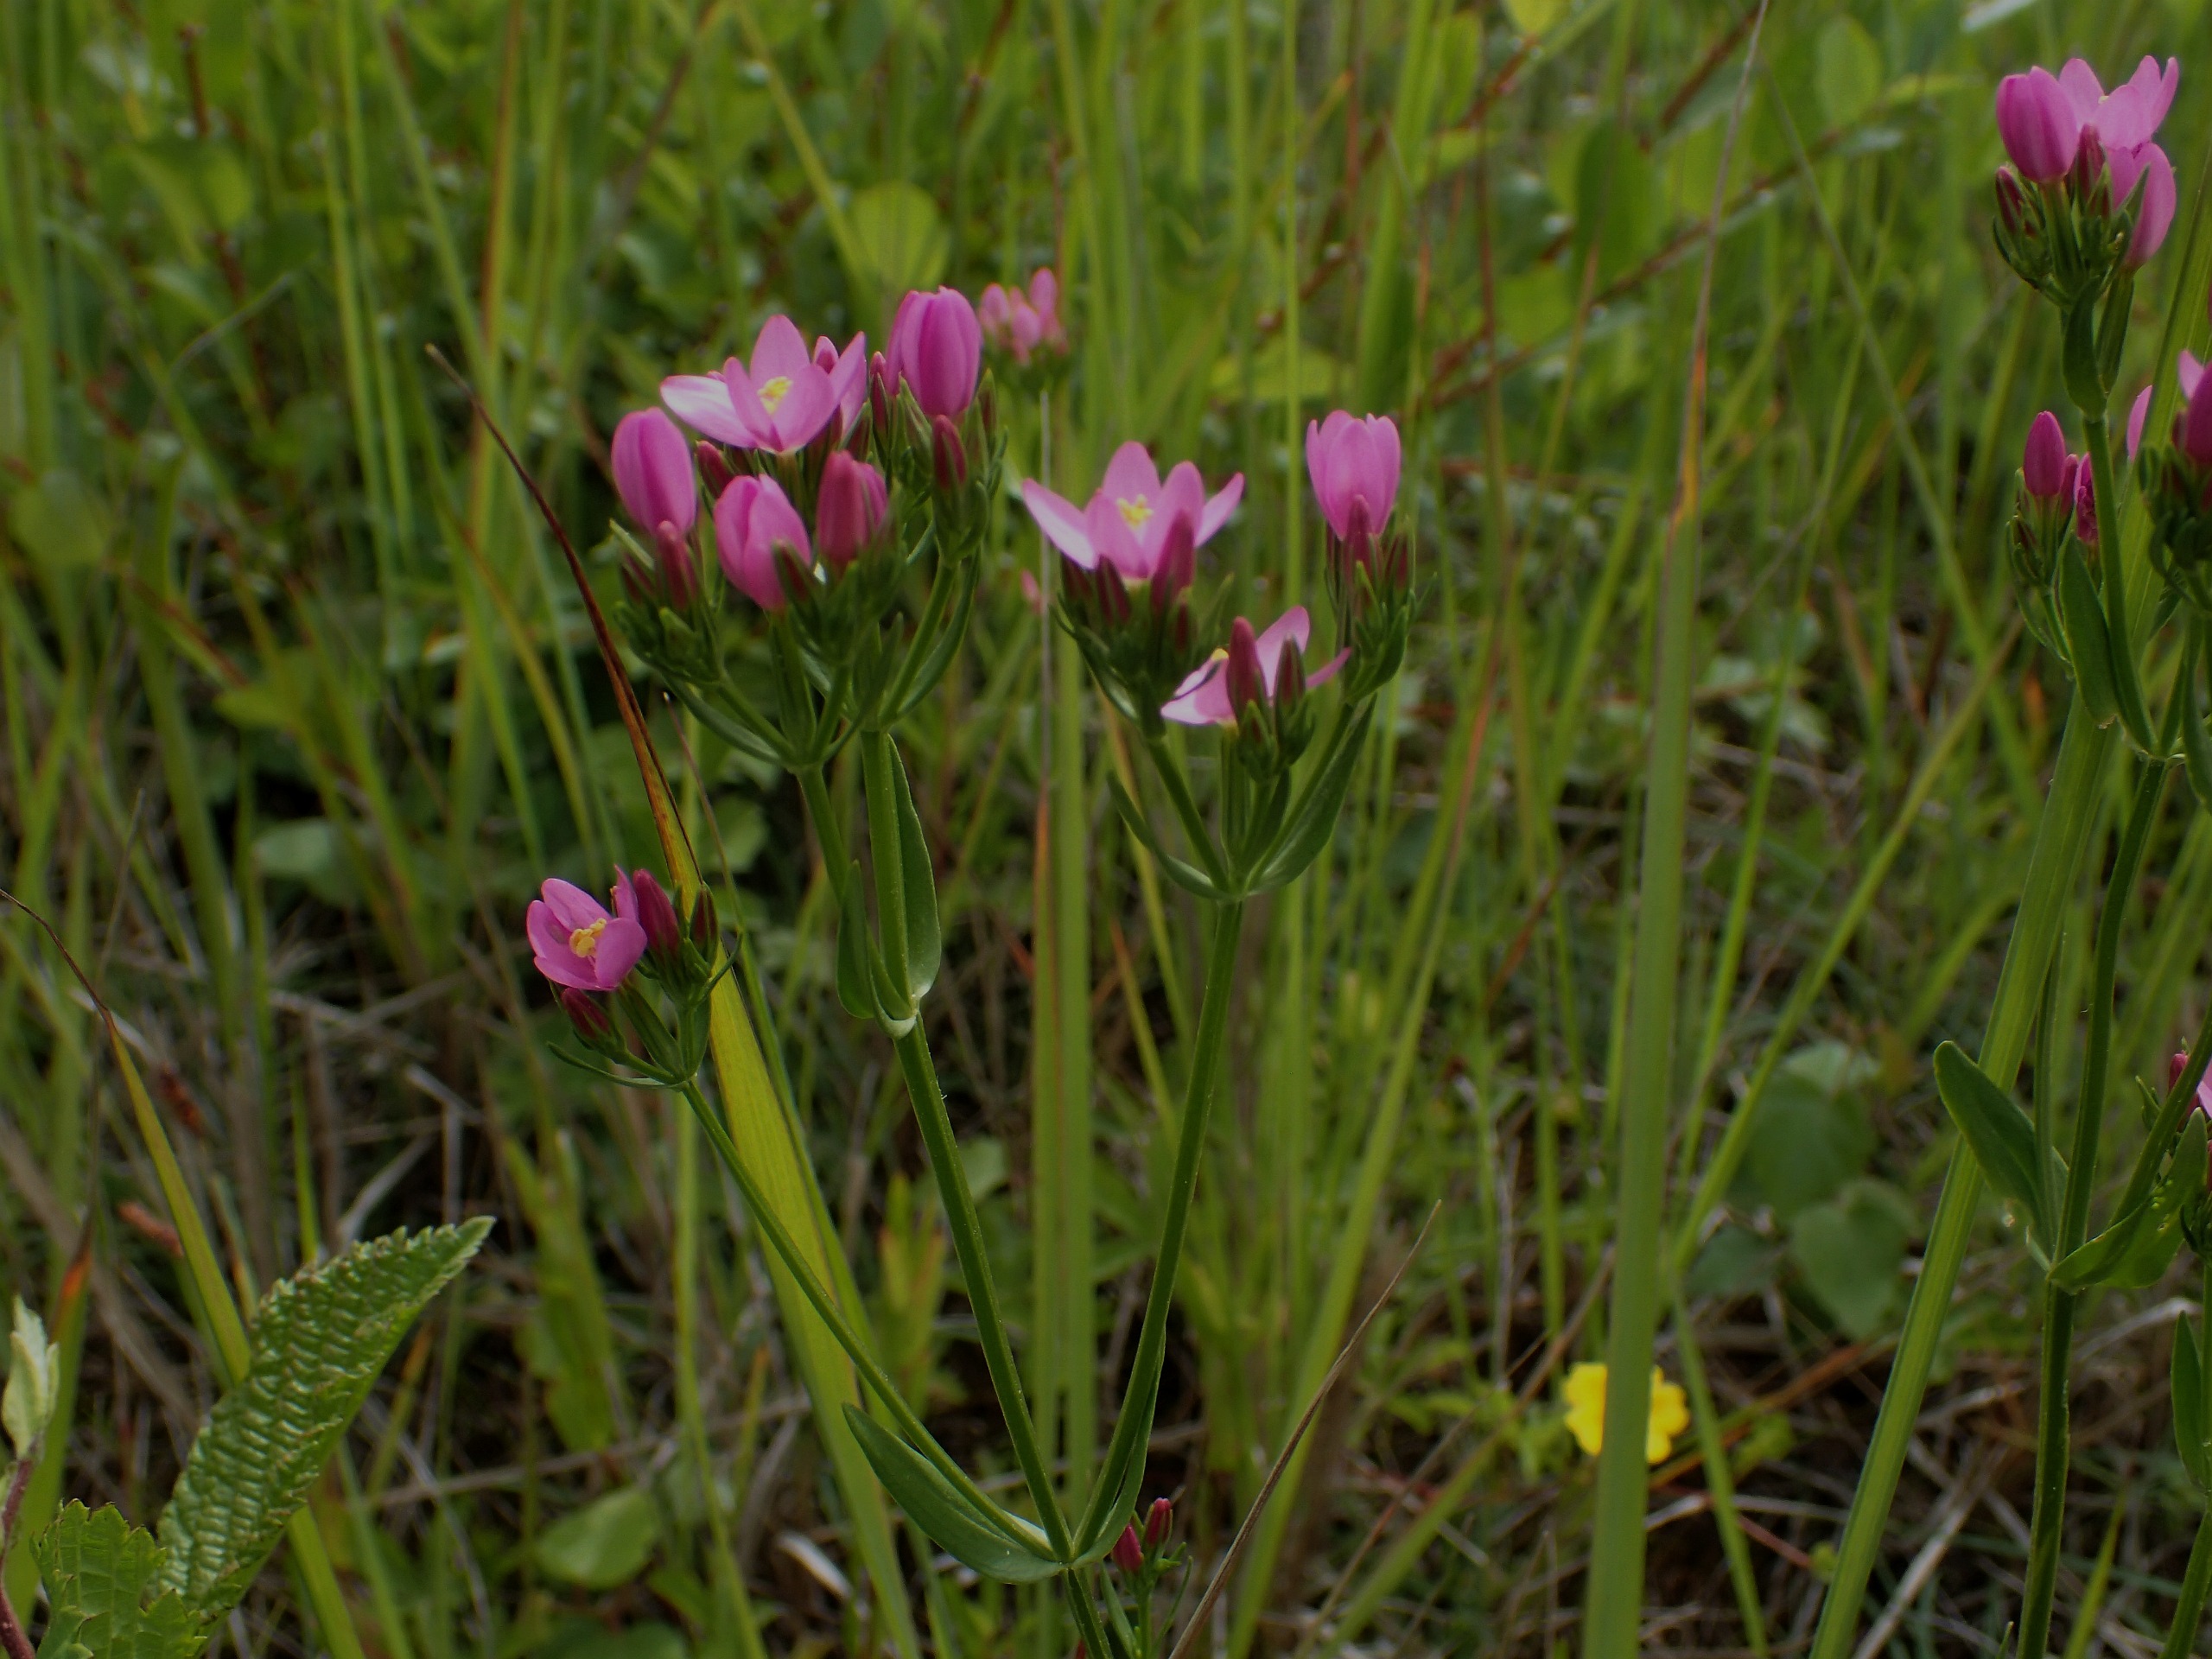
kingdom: Plantae
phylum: Tracheophyta
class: Magnoliopsida
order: Gentianales
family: Gentianaceae
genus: Centaurium
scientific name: Centaurium erythraea
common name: Mark-tusindgylden
